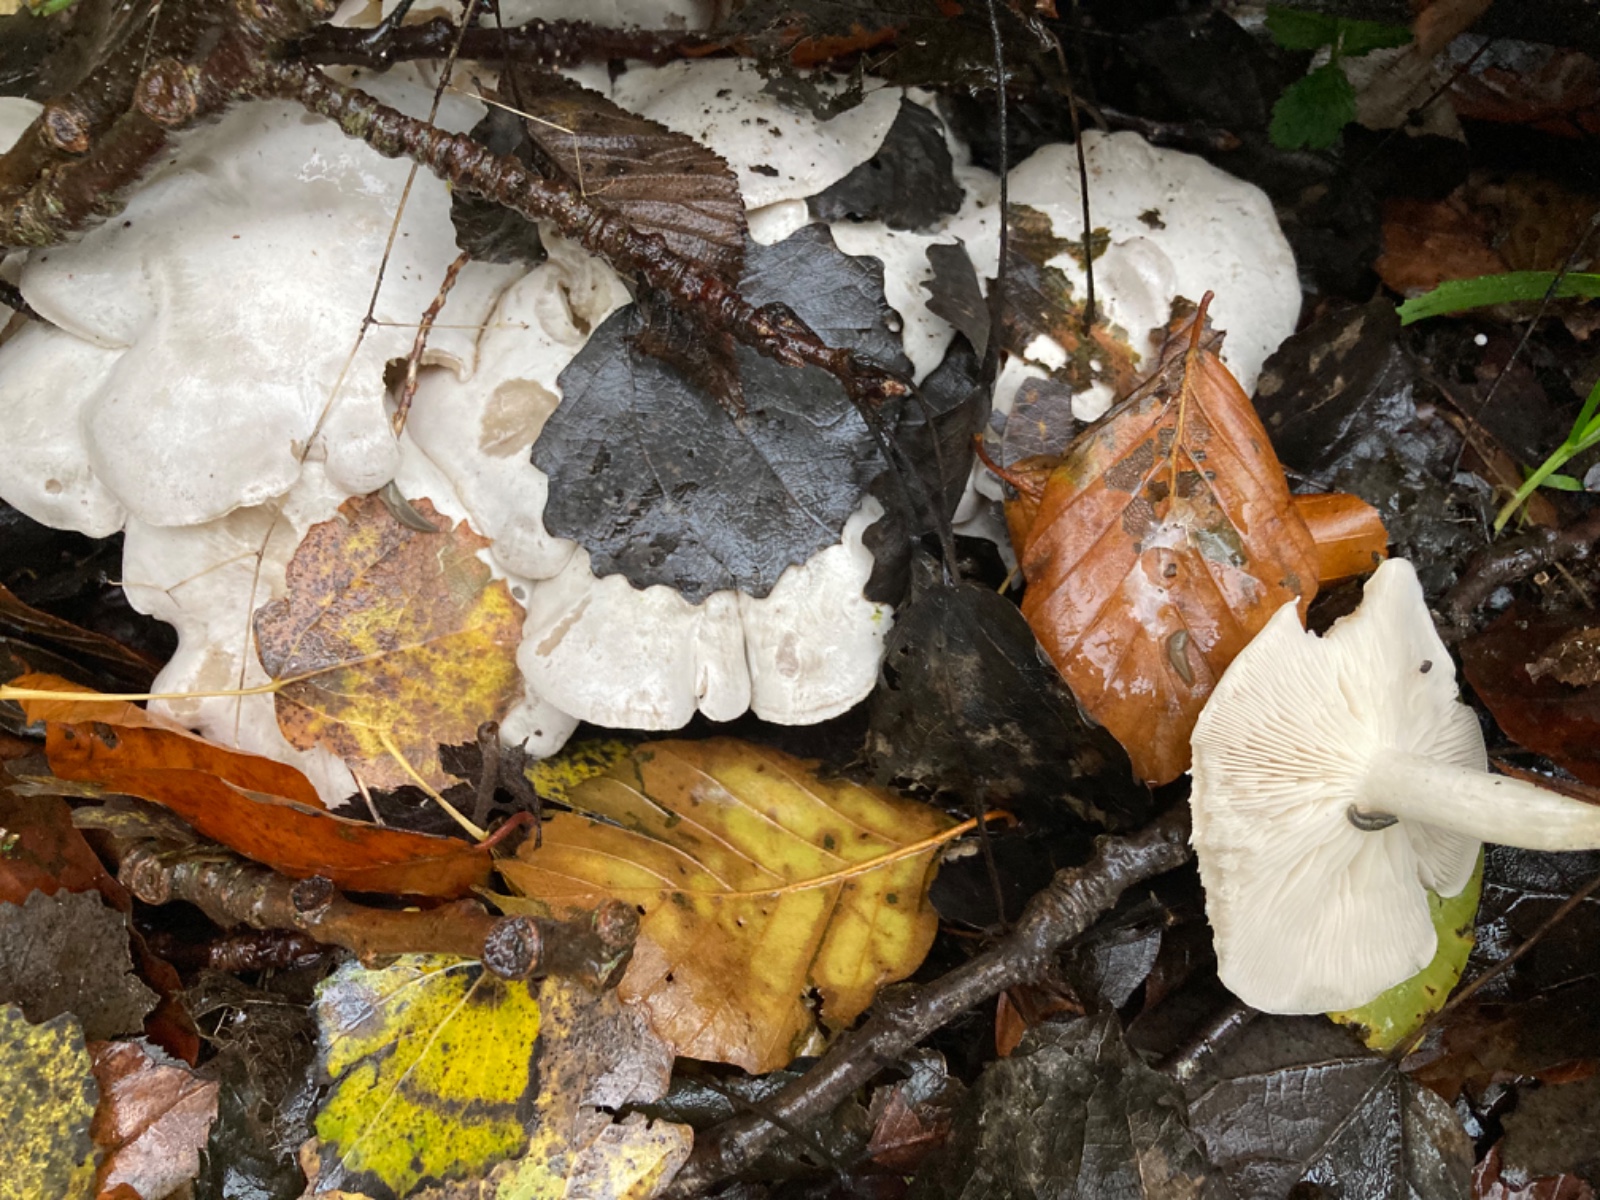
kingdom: Fungi
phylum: Basidiomycota
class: Agaricomycetes
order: Agaricales
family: Tricholomataceae
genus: Leucocybe
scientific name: Leucocybe connata
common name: knippe-tragthat
